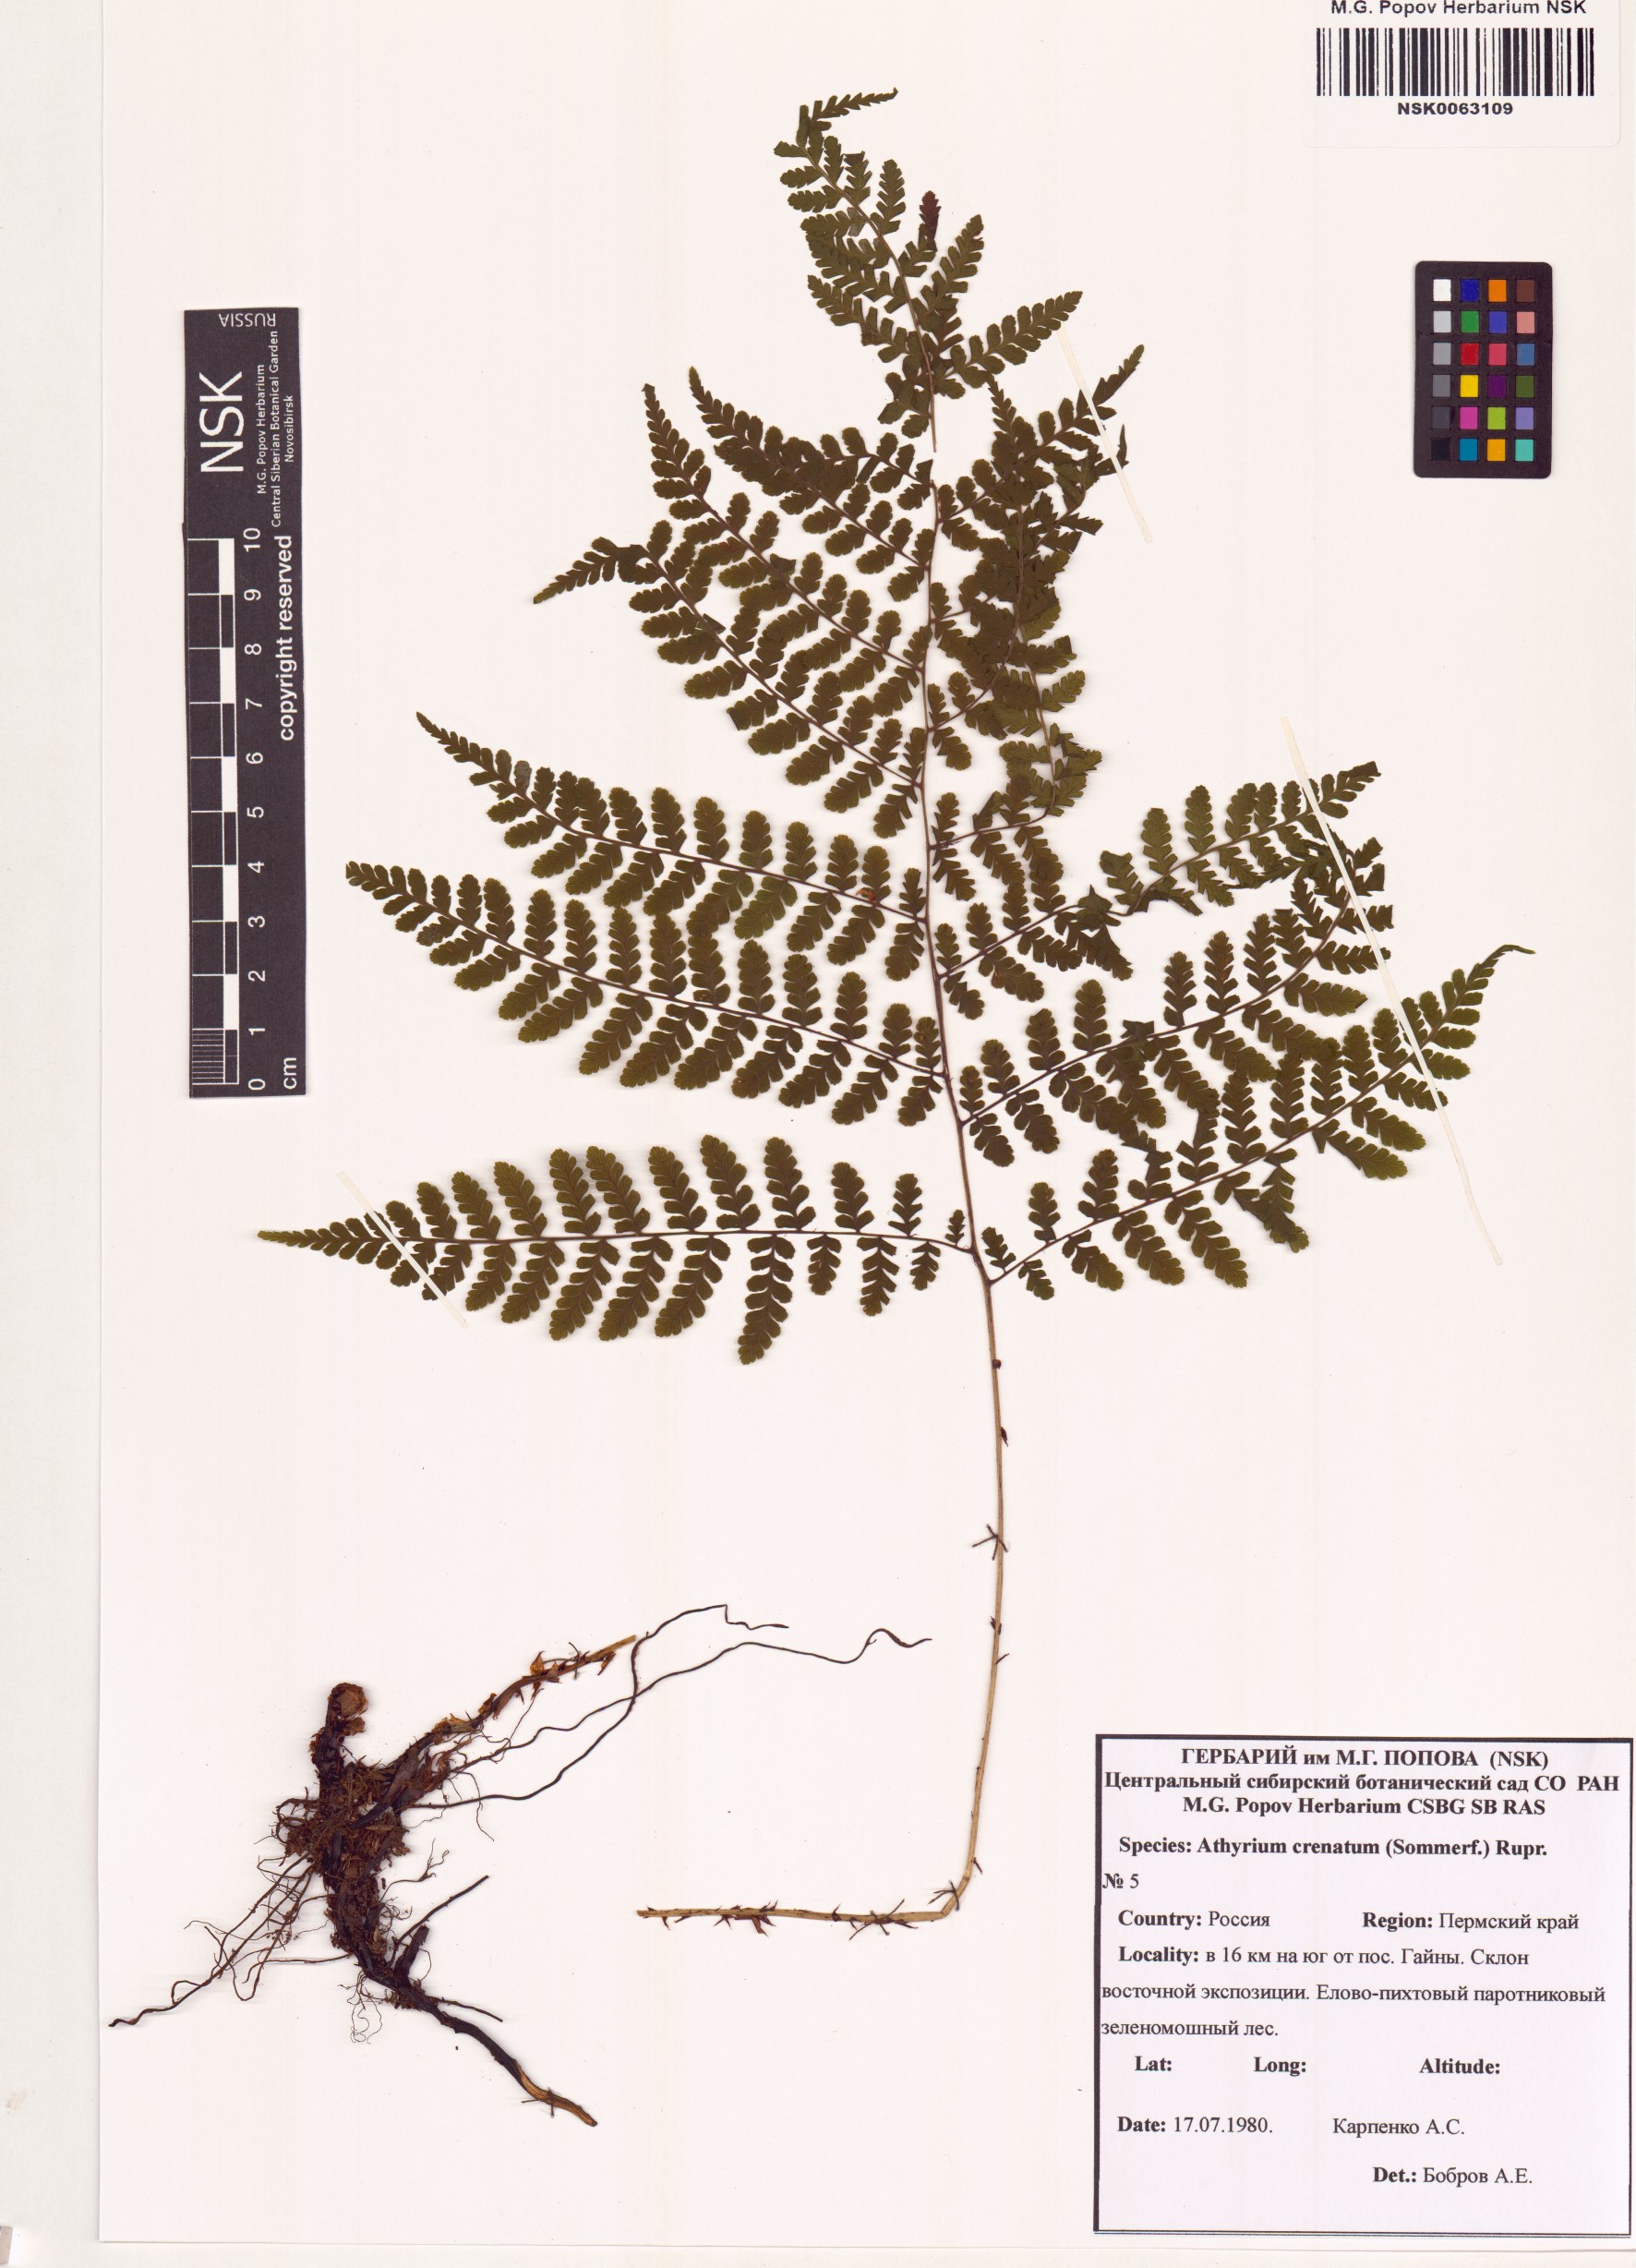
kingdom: Plantae
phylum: Tracheophyta
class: Polypodiopsida
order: Polypodiales
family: Athyriaceae
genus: Diplazium
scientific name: Diplazium sibiricum
